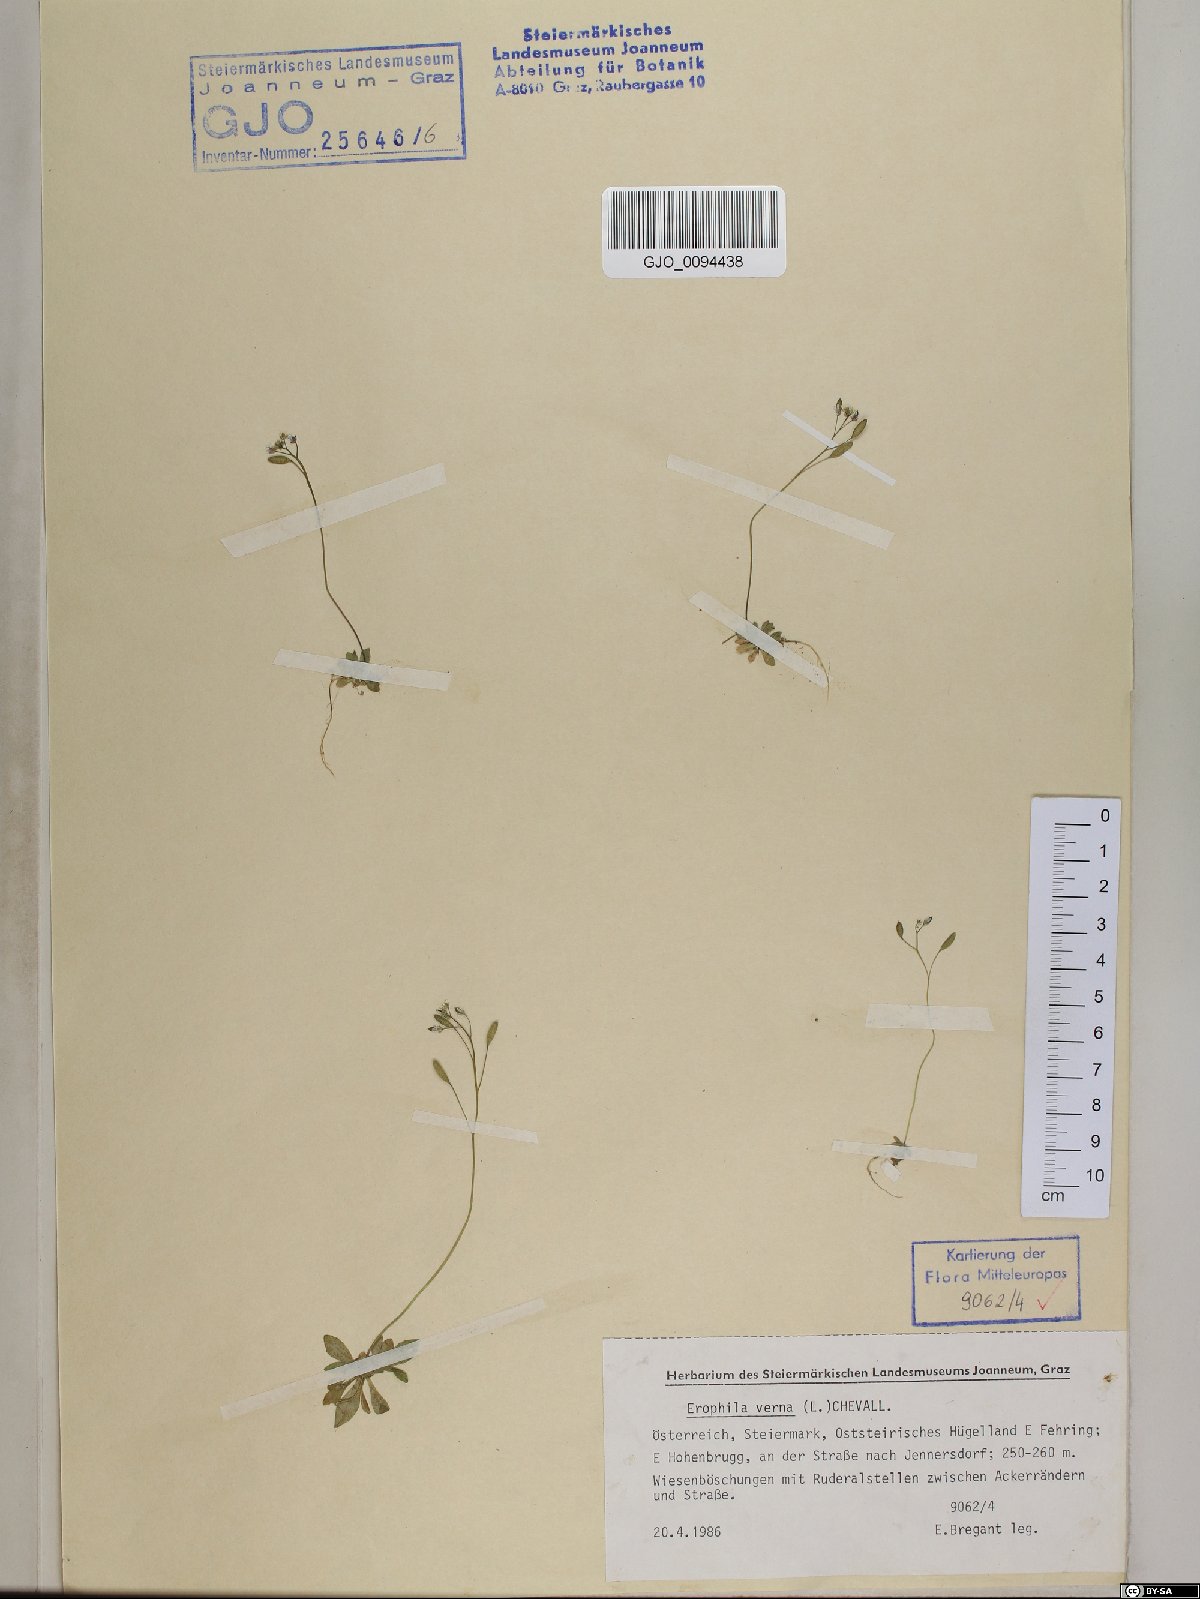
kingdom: Plantae
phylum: Tracheophyta
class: Magnoliopsida
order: Brassicales
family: Brassicaceae
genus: Draba
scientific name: Draba verna
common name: Spring draba
